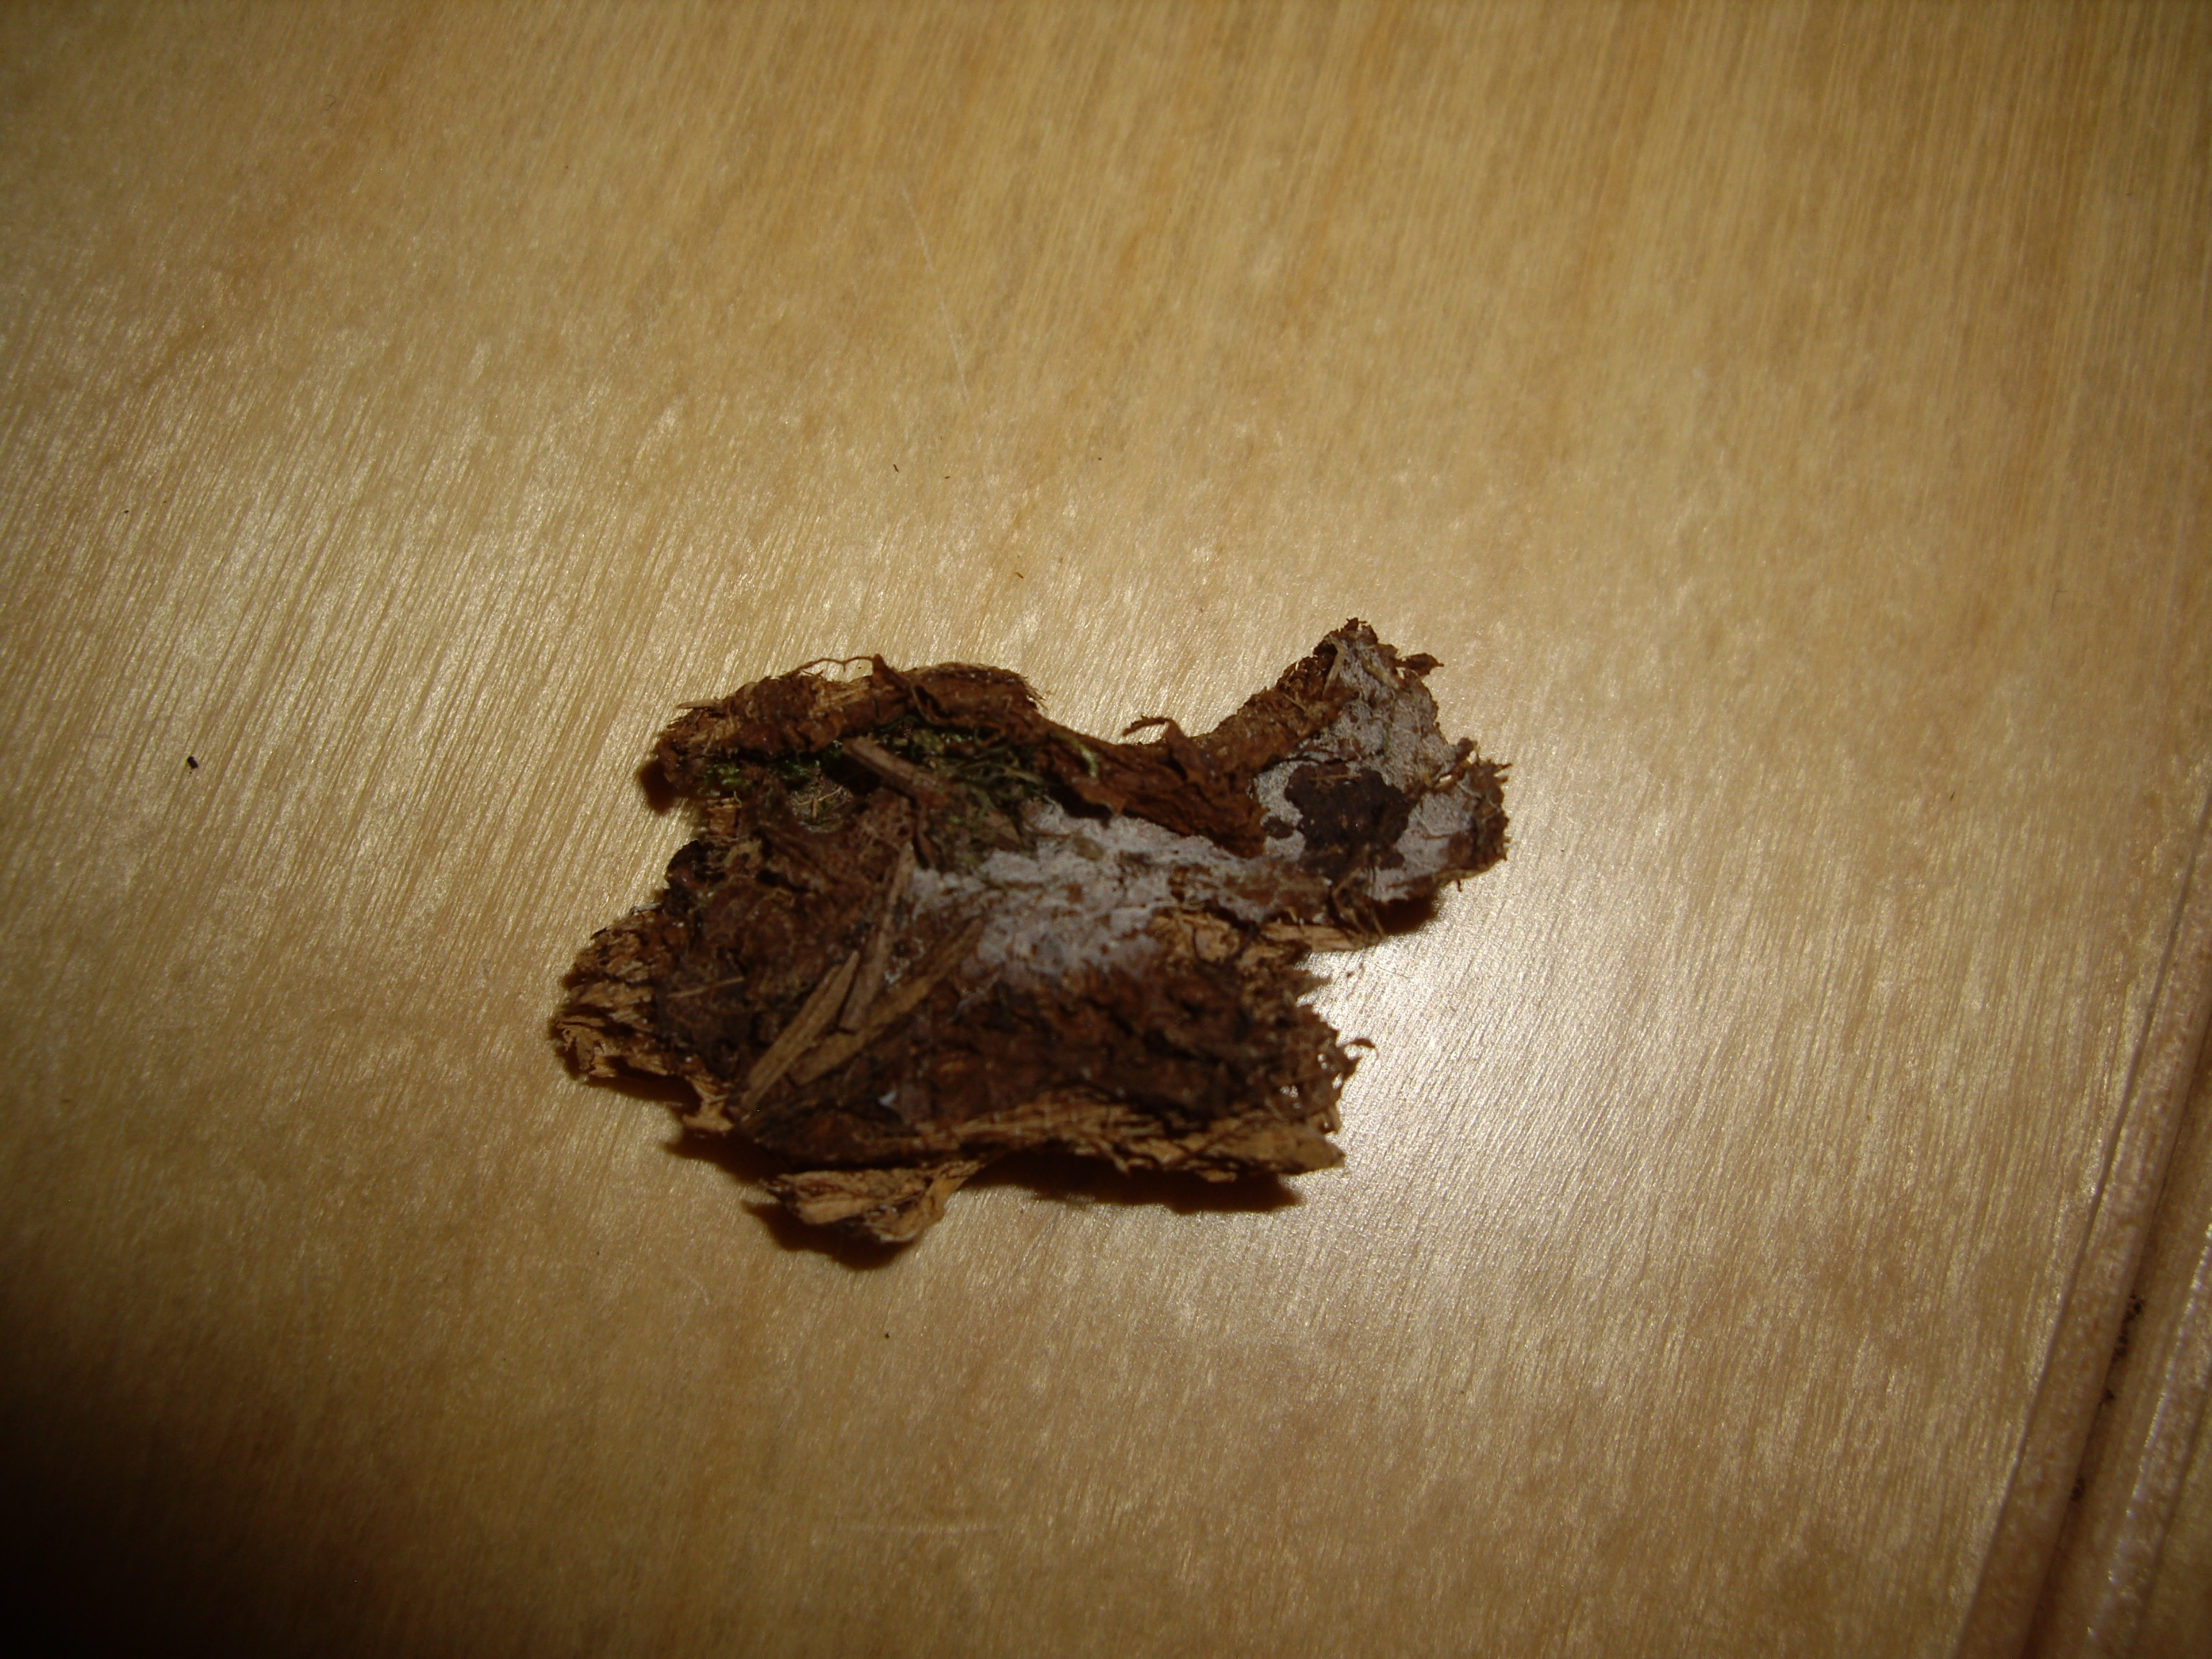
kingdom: Fungi
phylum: Basidiomycota
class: Agaricomycetes
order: Trechisporales
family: Sistotremataceae
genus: Trechispora
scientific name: Trechispora verruculosa
